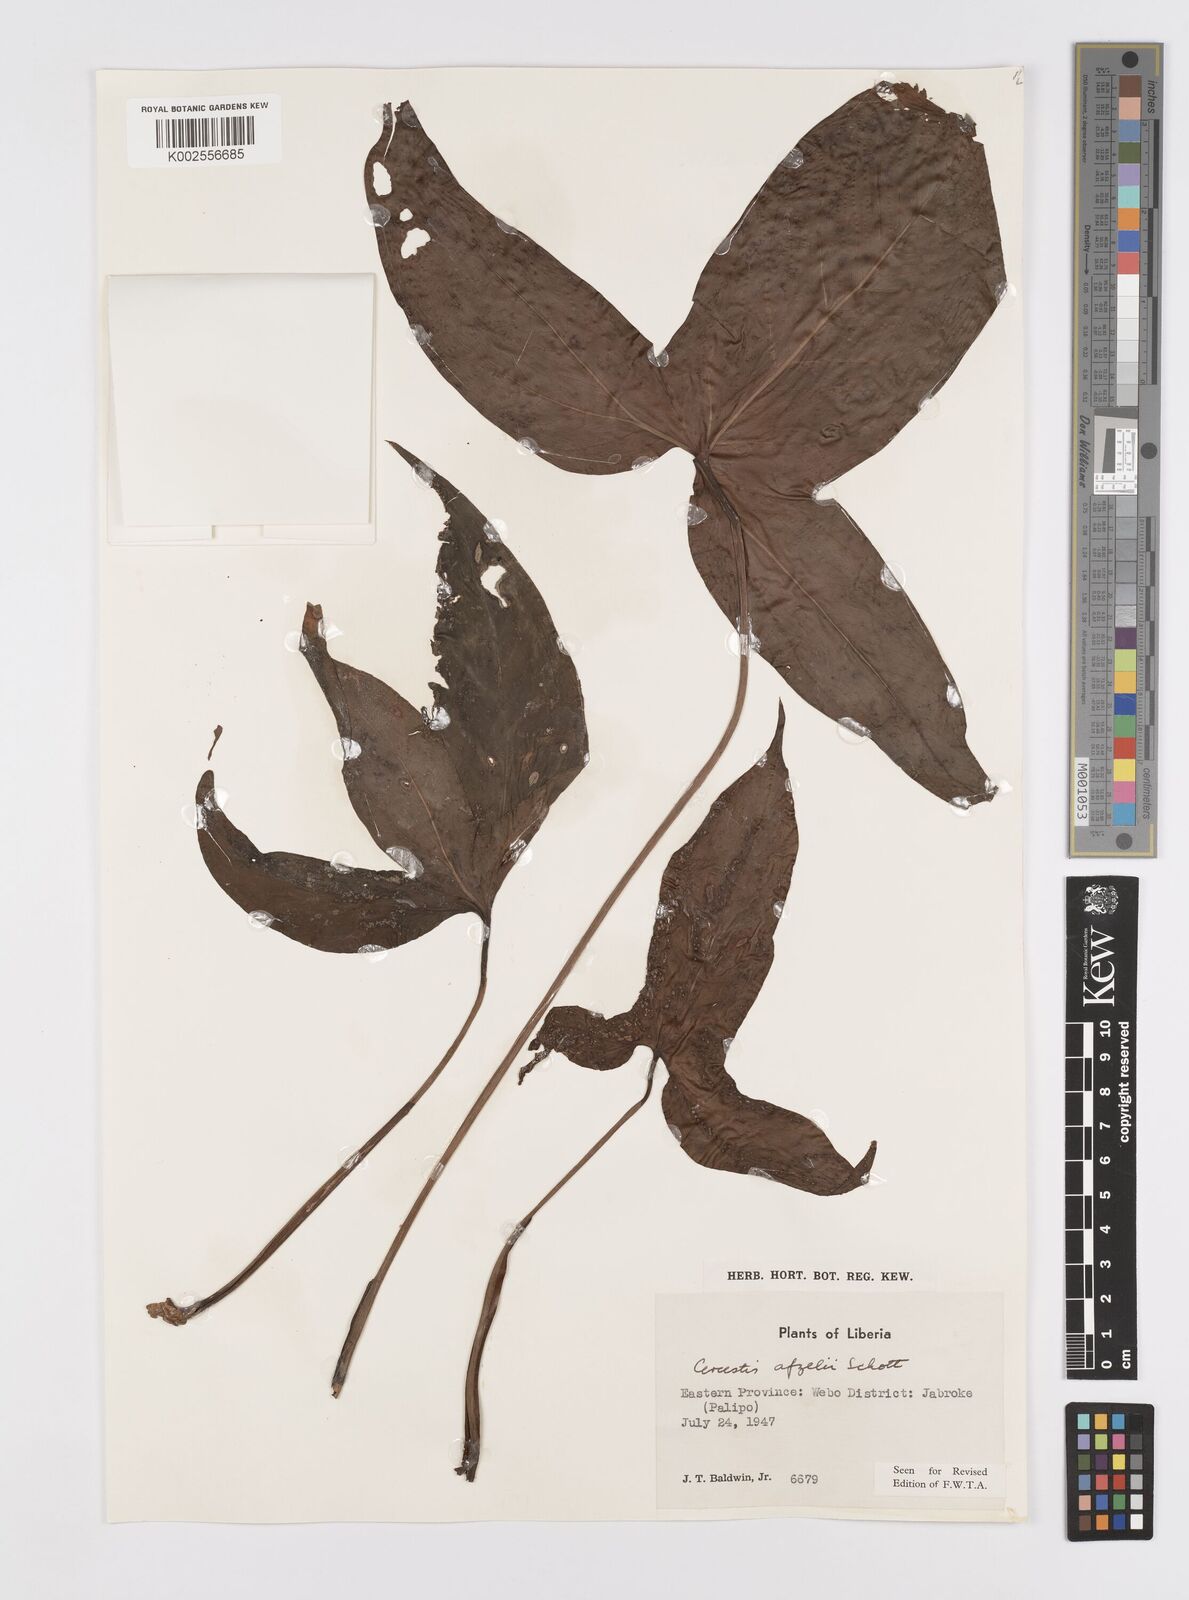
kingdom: Plantae
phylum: Tracheophyta
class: Liliopsida
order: Alismatales
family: Araceae
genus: Cercestis
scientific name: Cercestis afzelii
